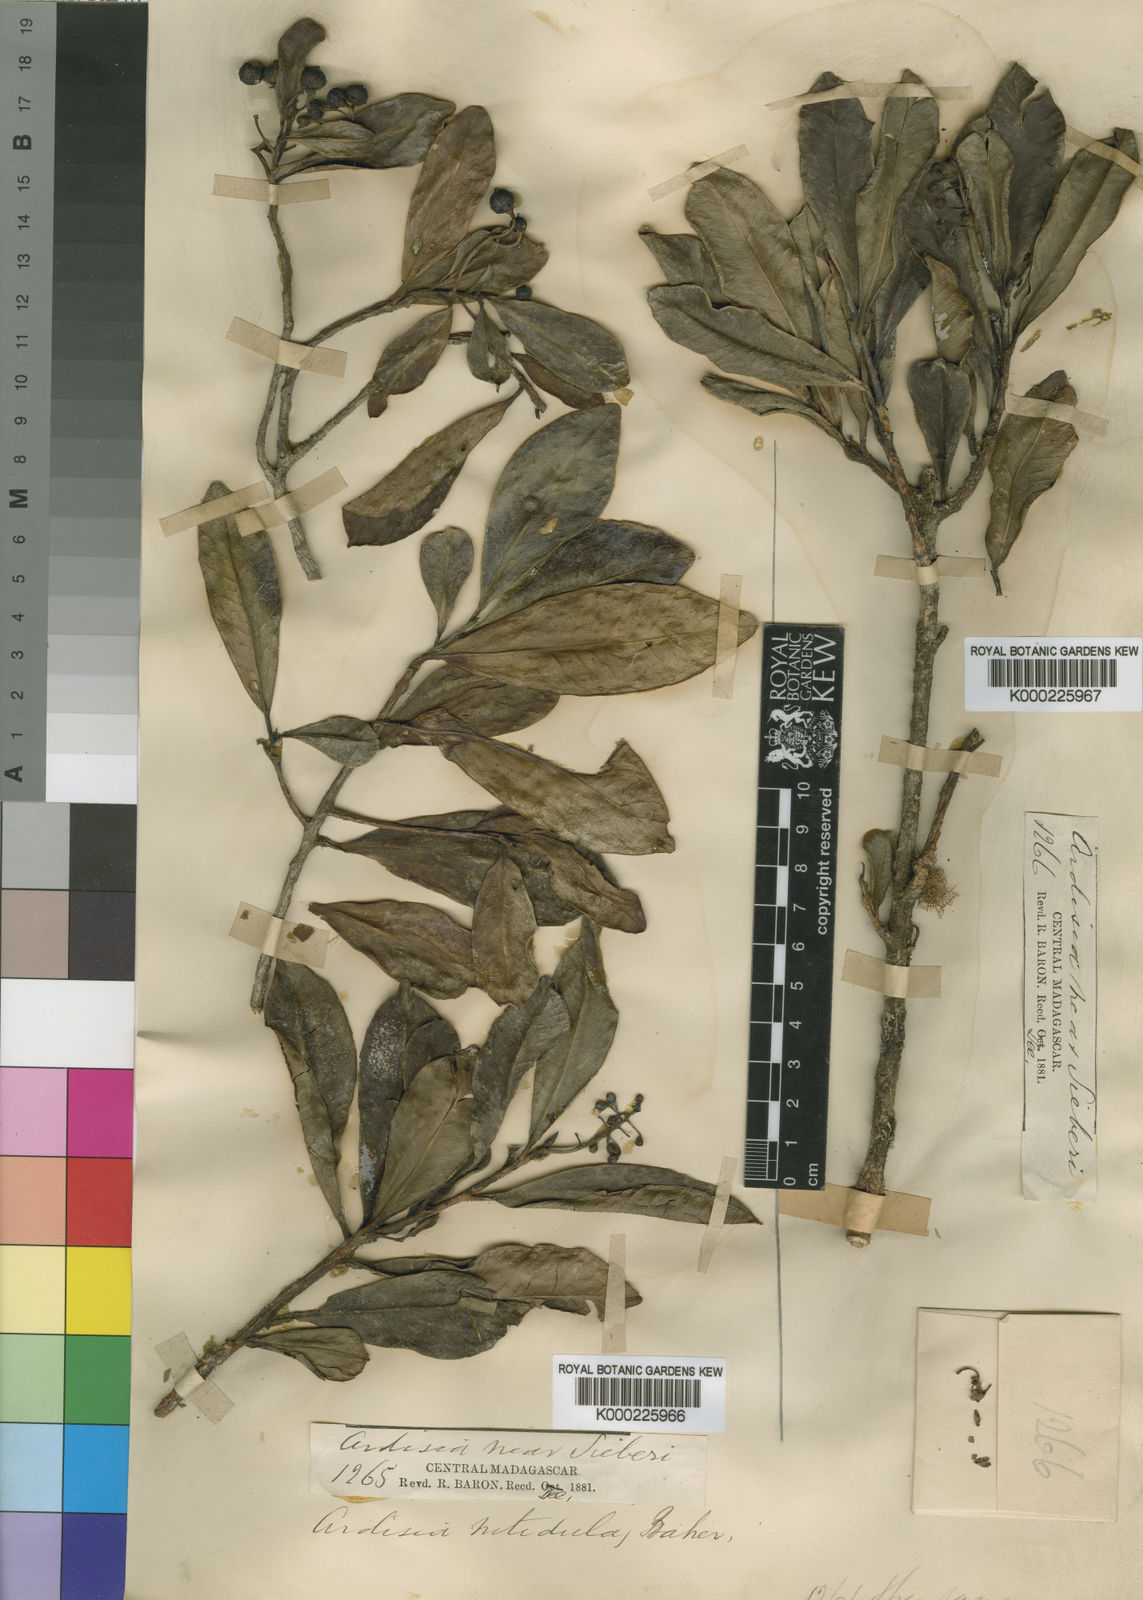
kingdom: Plantae
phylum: Tracheophyta
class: Magnoliopsida
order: Ericales
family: Primulaceae
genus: Oncostemum
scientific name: Oncostemum nitidulum
